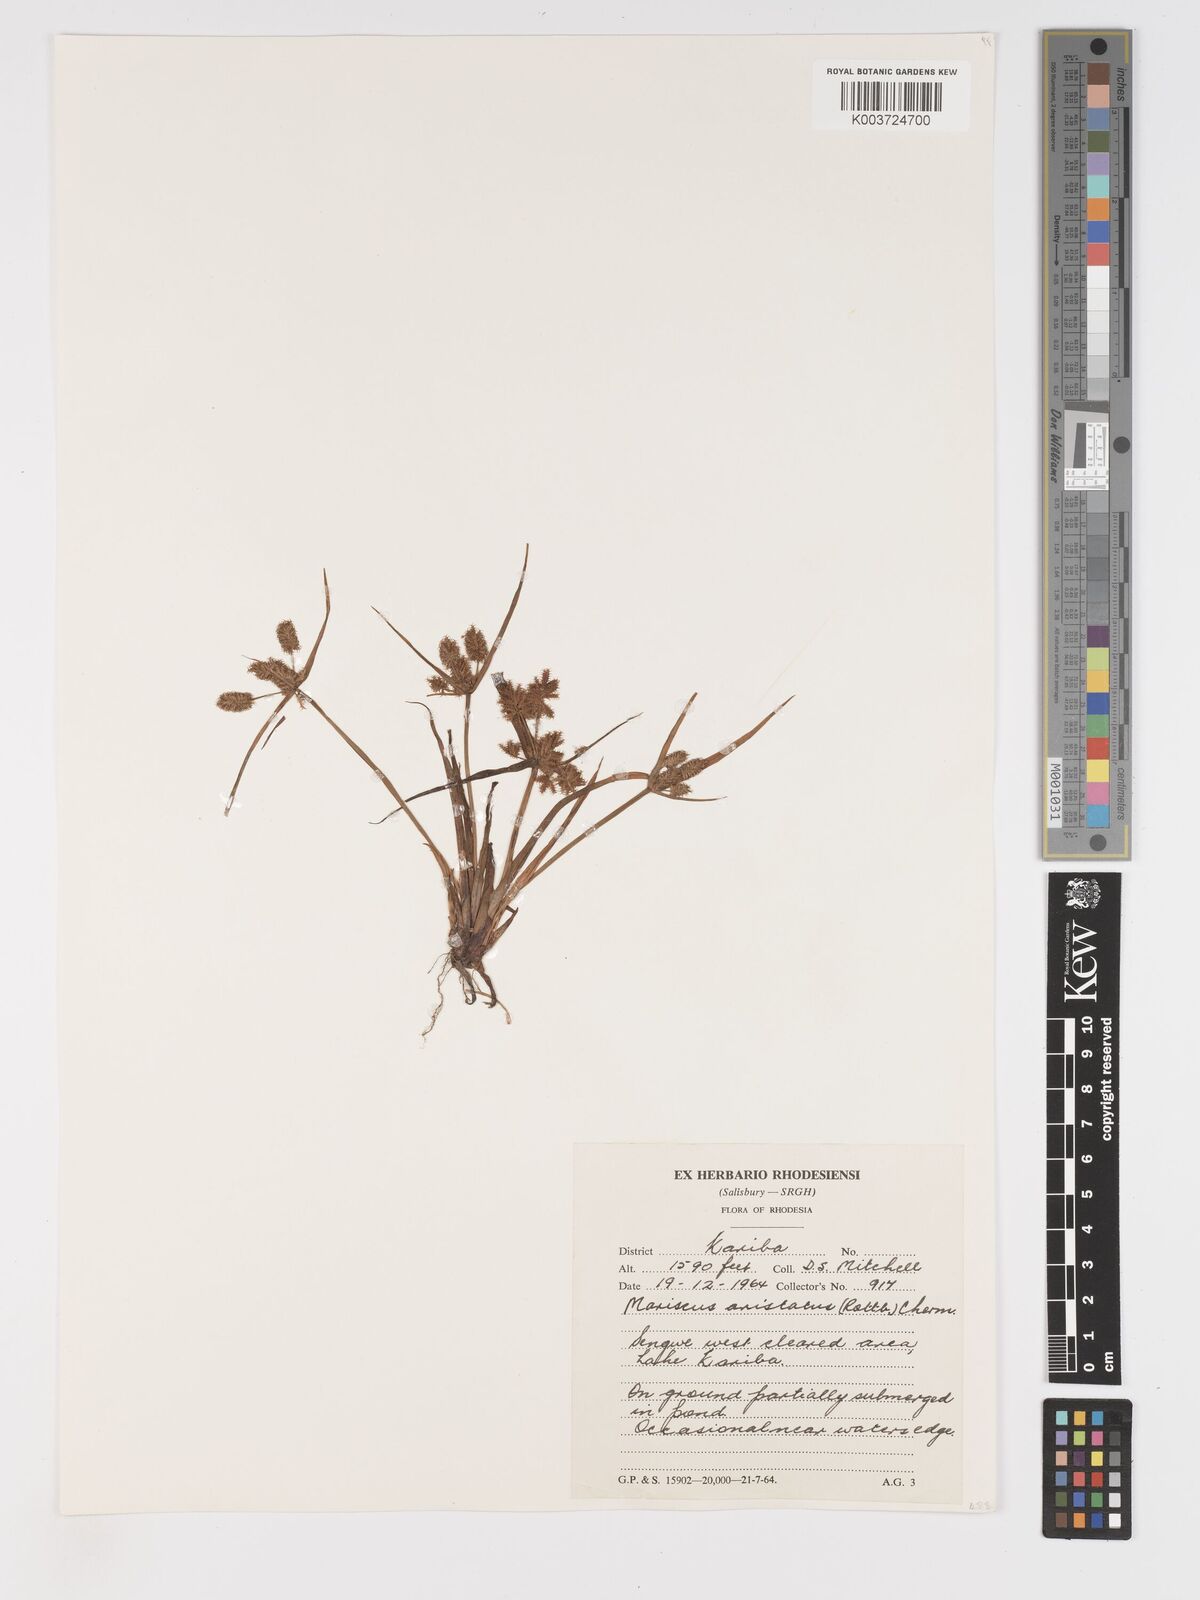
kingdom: Plantae
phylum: Tracheophyta
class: Liliopsida
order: Poales
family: Cyperaceae
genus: Cyperus
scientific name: Cyperus squarrosus
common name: Awned cyperus
